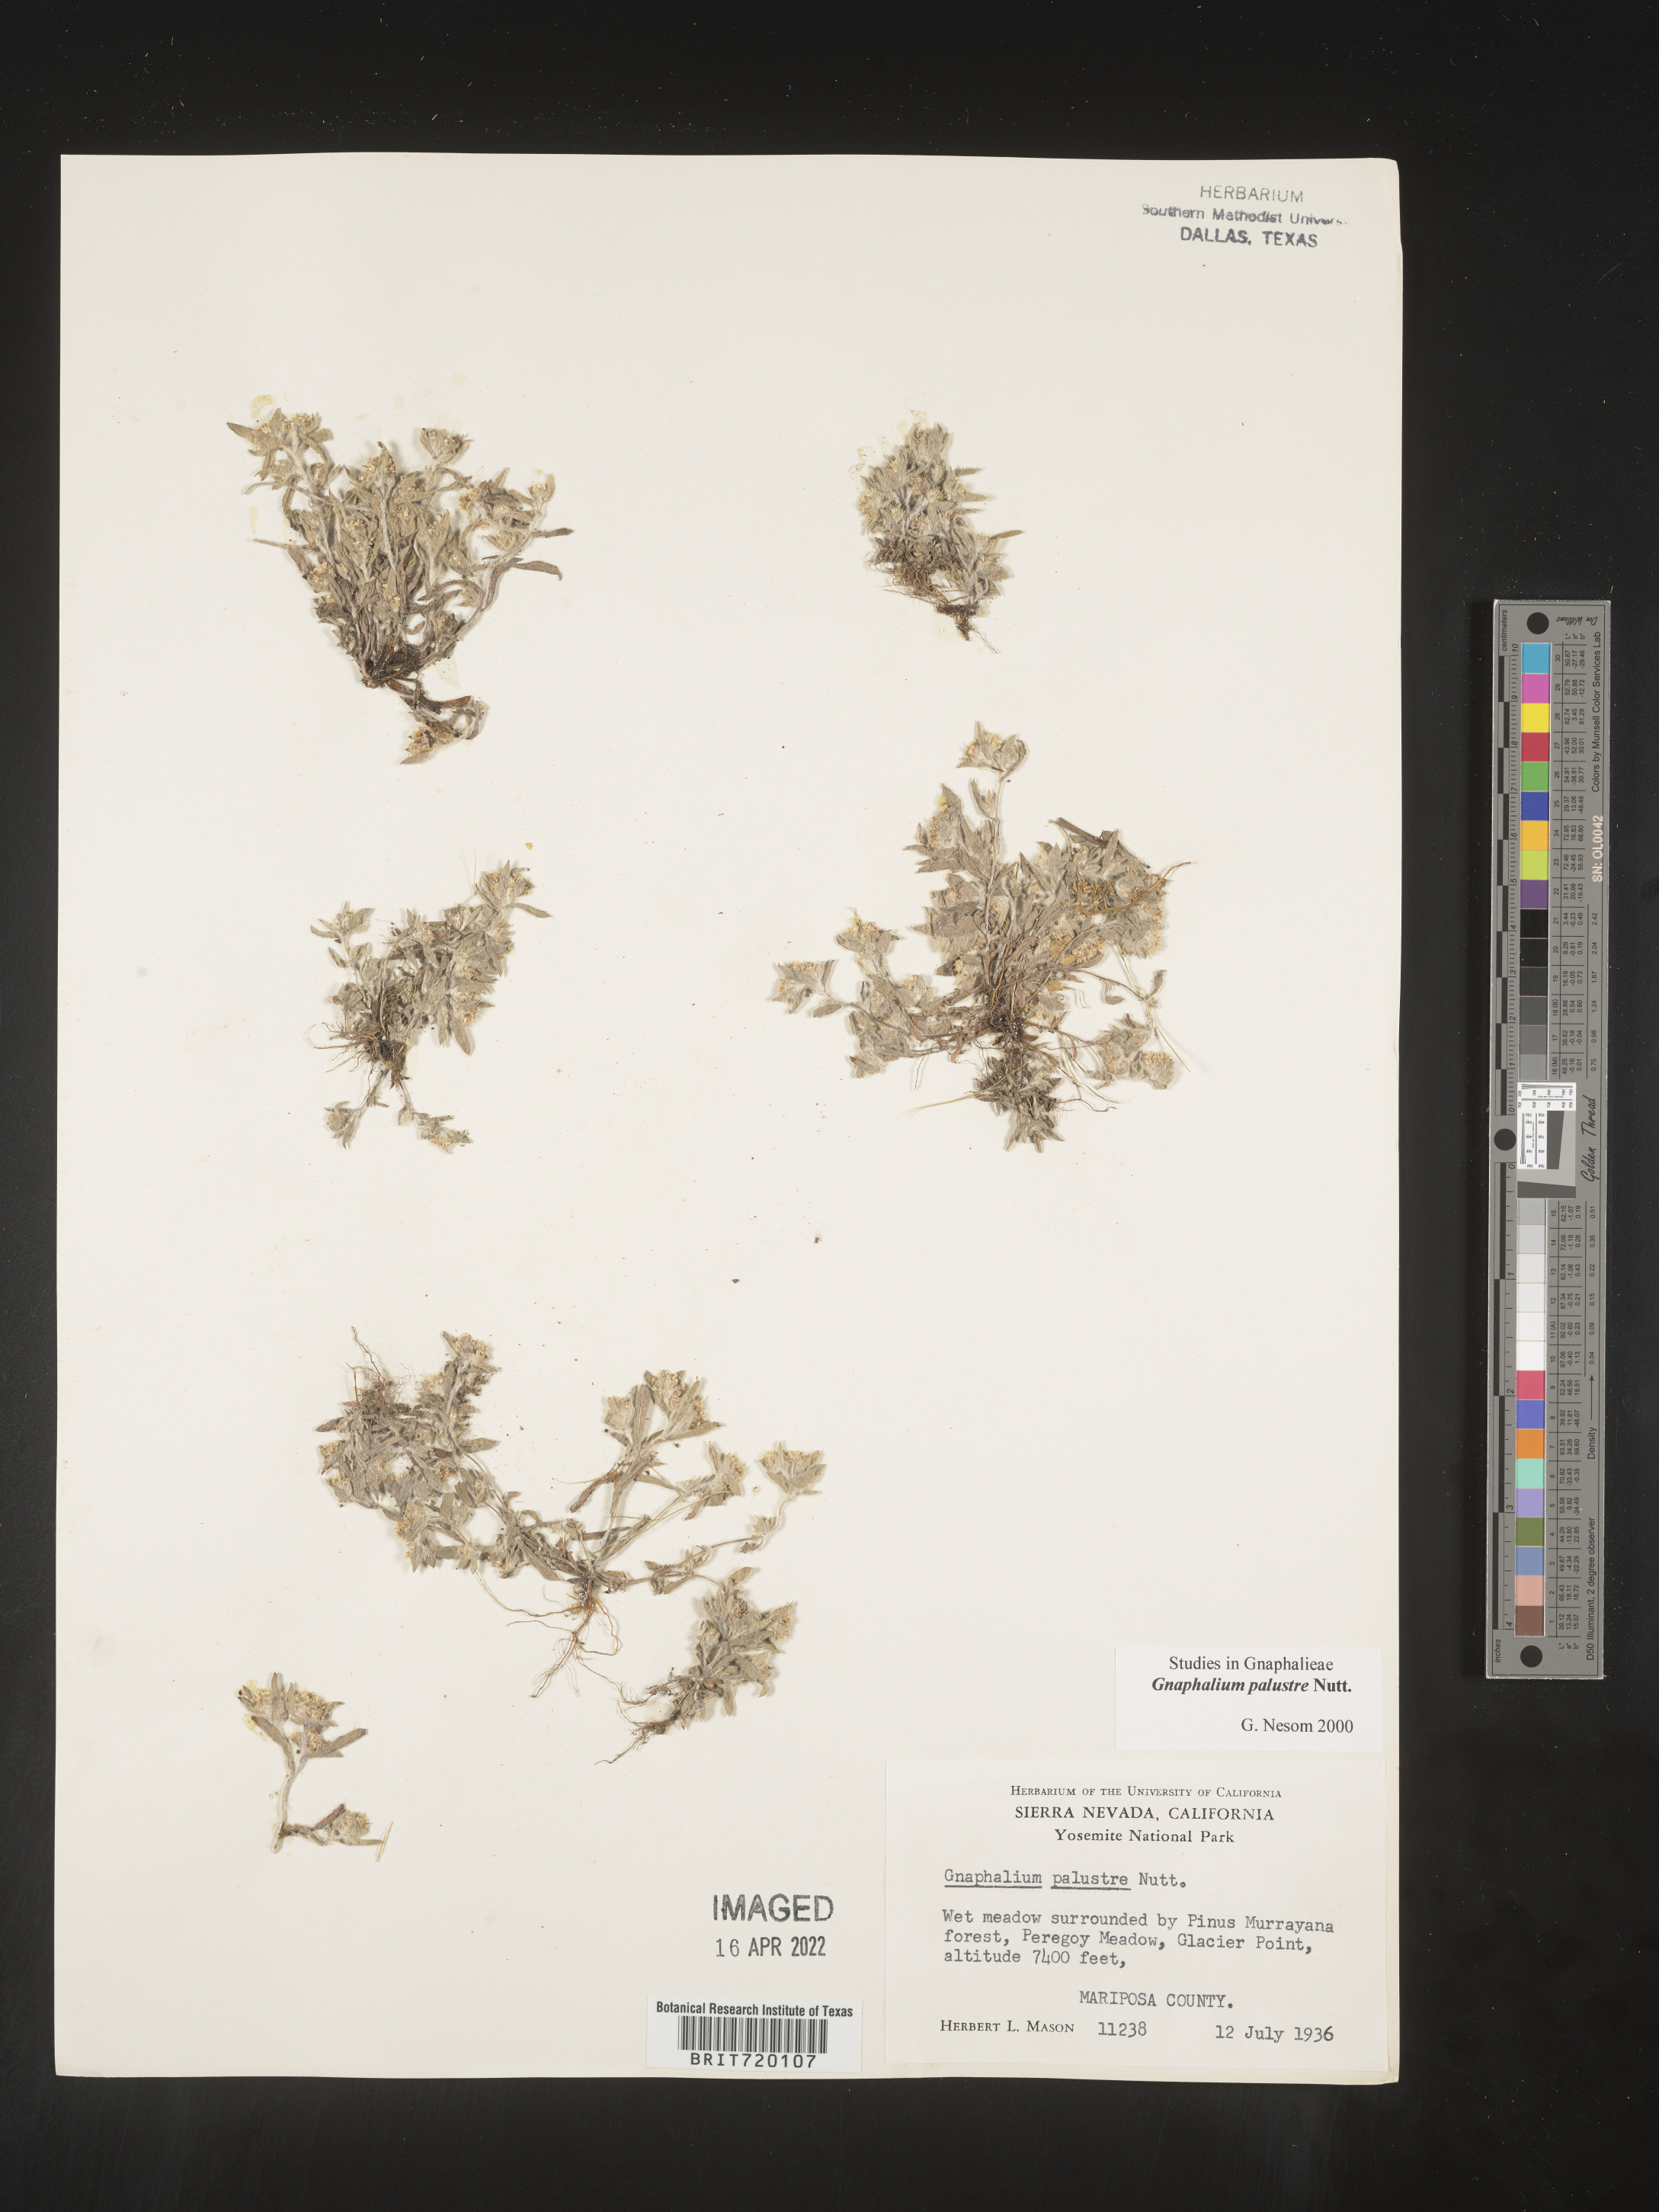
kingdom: Plantae
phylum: Tracheophyta
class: Magnoliopsida
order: Asterales
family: Asteraceae
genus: Gnaphalium
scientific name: Gnaphalium palustre
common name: Western marsh cudweed
